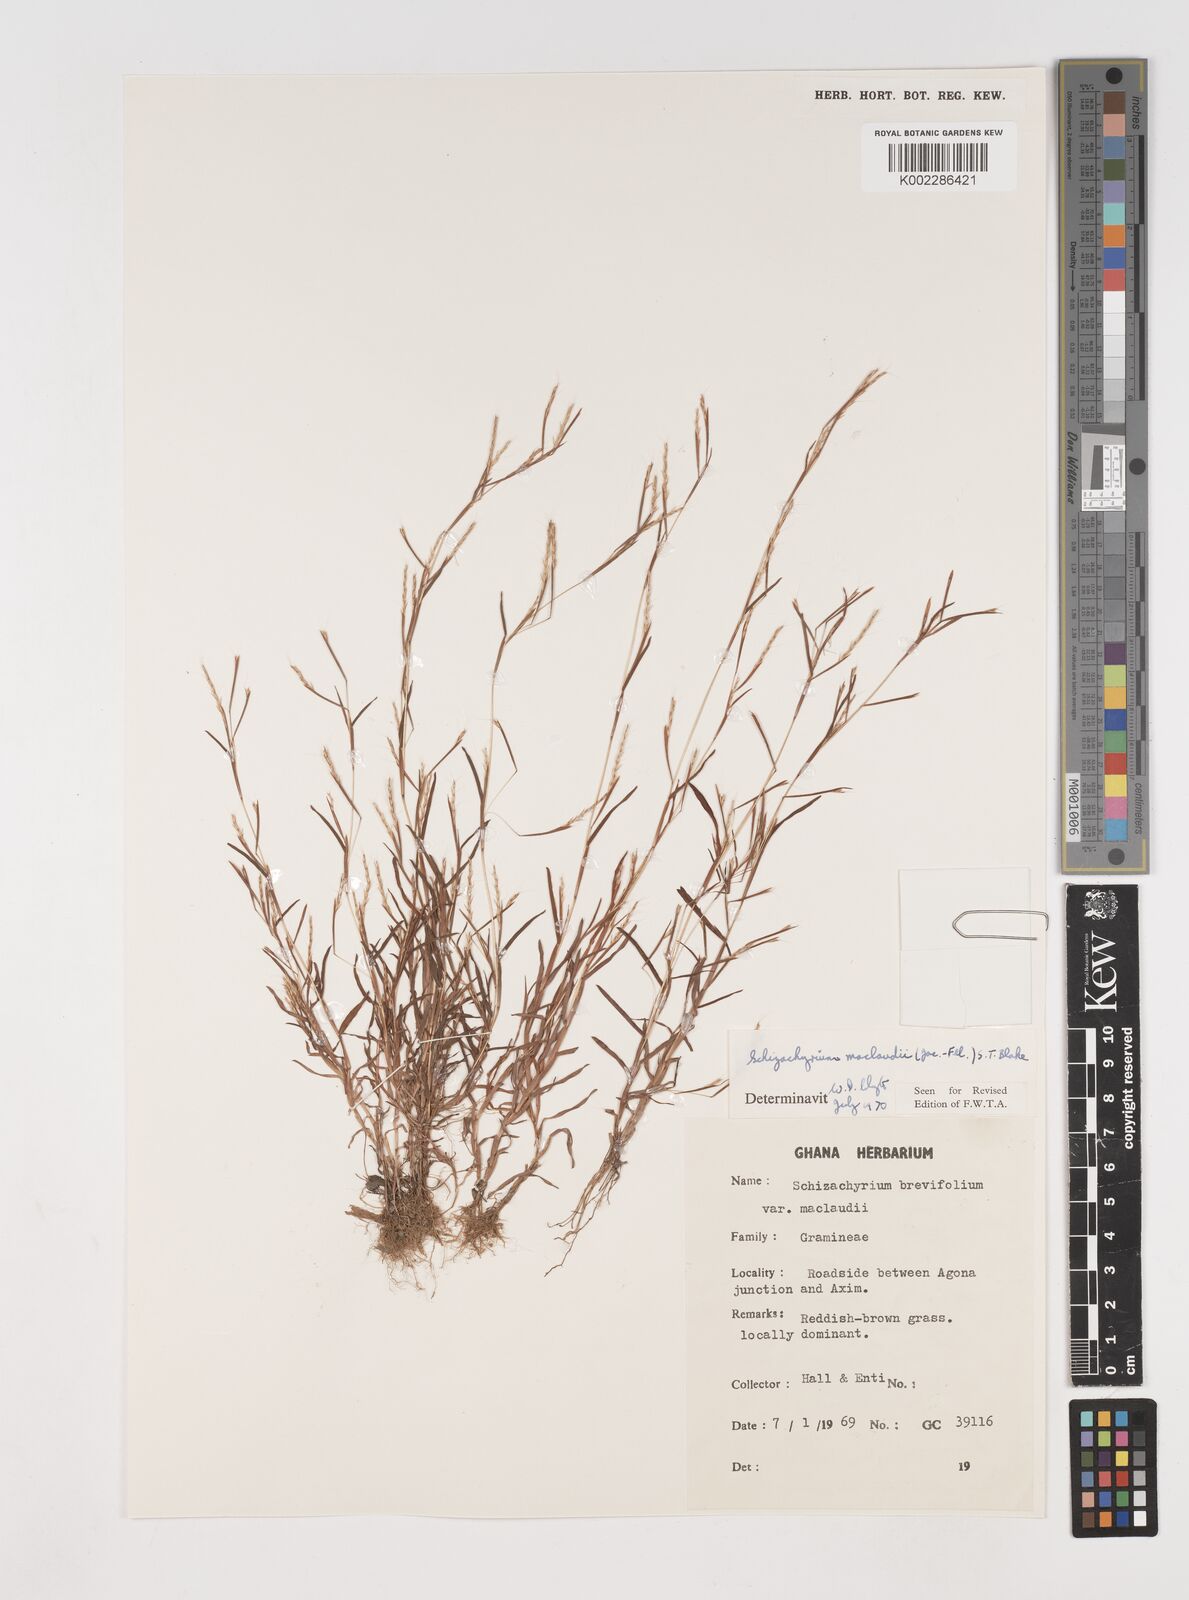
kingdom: Plantae
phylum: Tracheophyta
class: Liliopsida
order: Poales
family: Poaceae
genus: Schizachyrium
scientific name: Schizachyrium maclaudii
